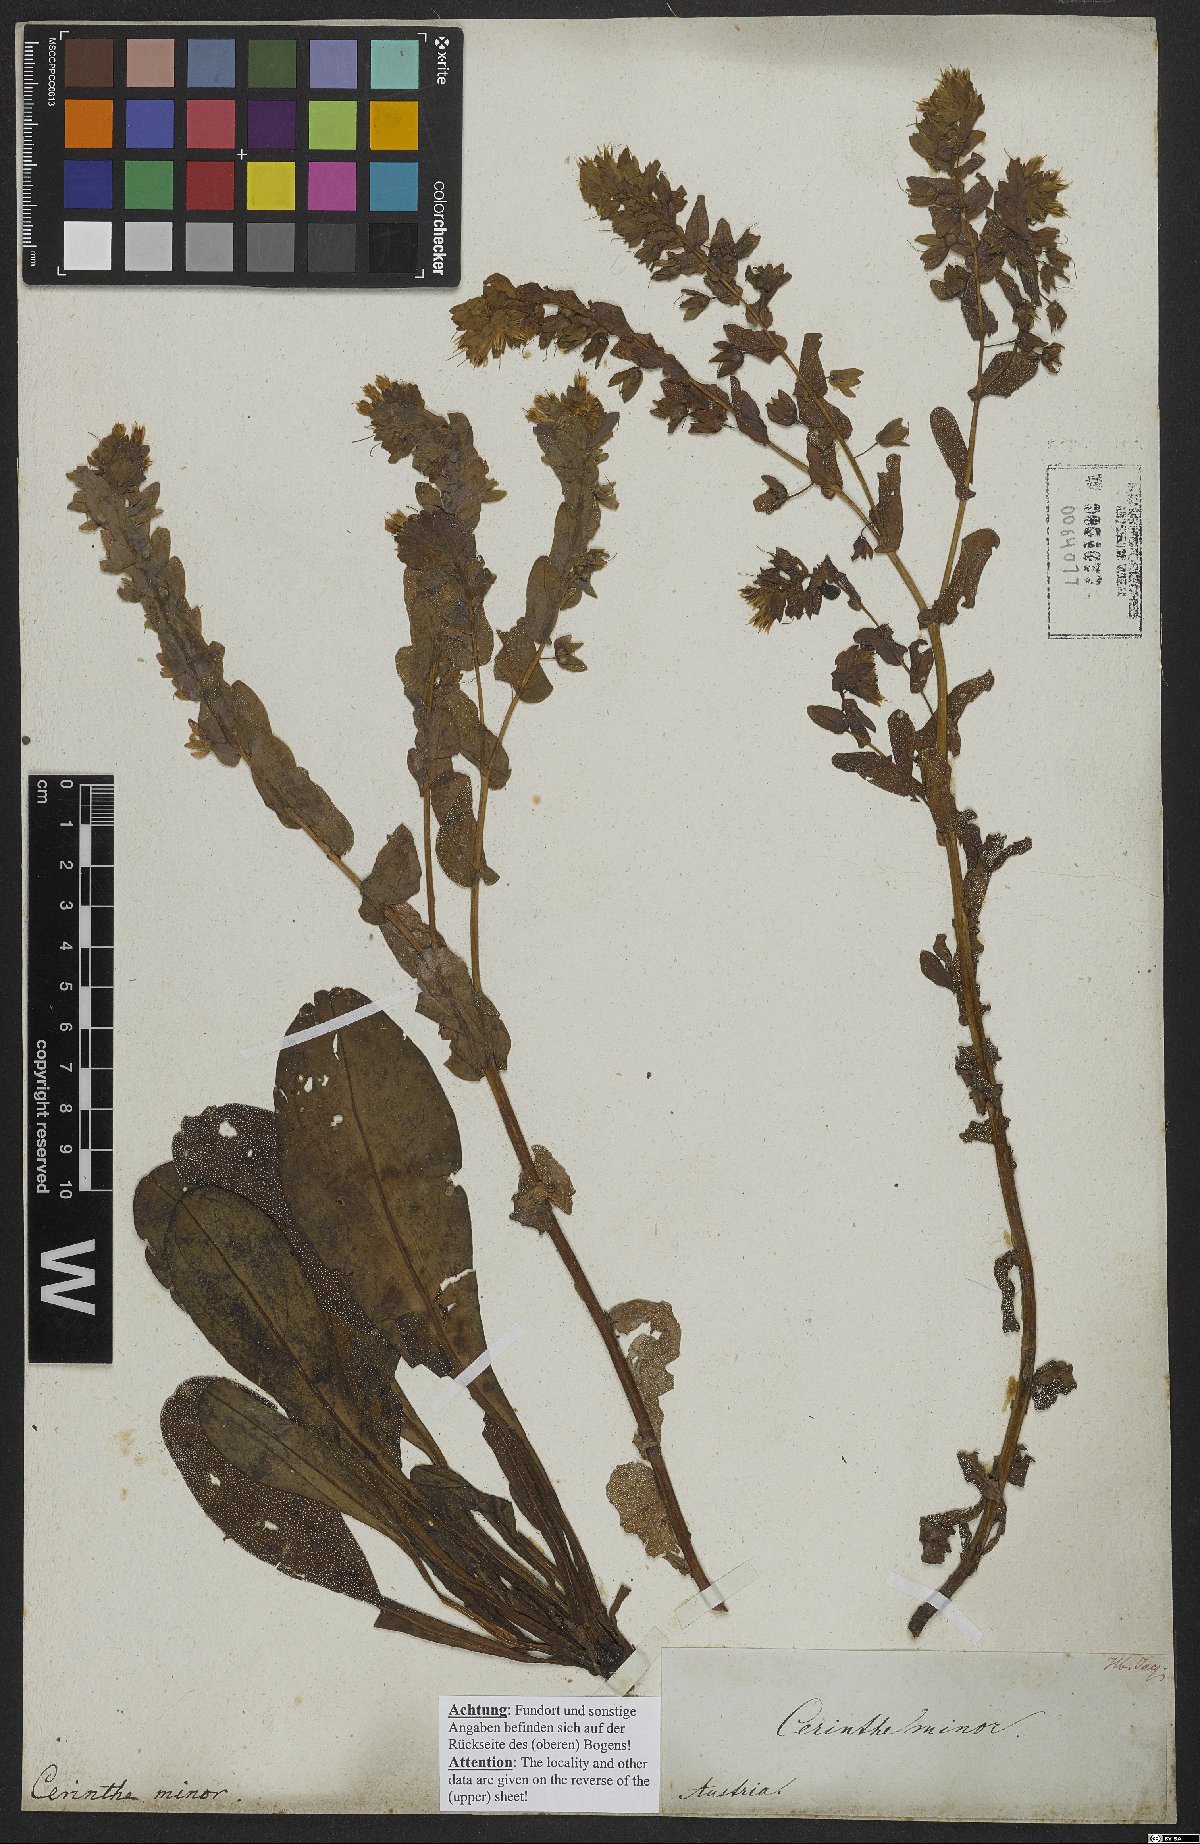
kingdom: Plantae
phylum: Tracheophyta
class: Magnoliopsida
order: Boraginales
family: Boraginaceae
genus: Cerinthe
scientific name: Cerinthe minor
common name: Lesser honeywort
